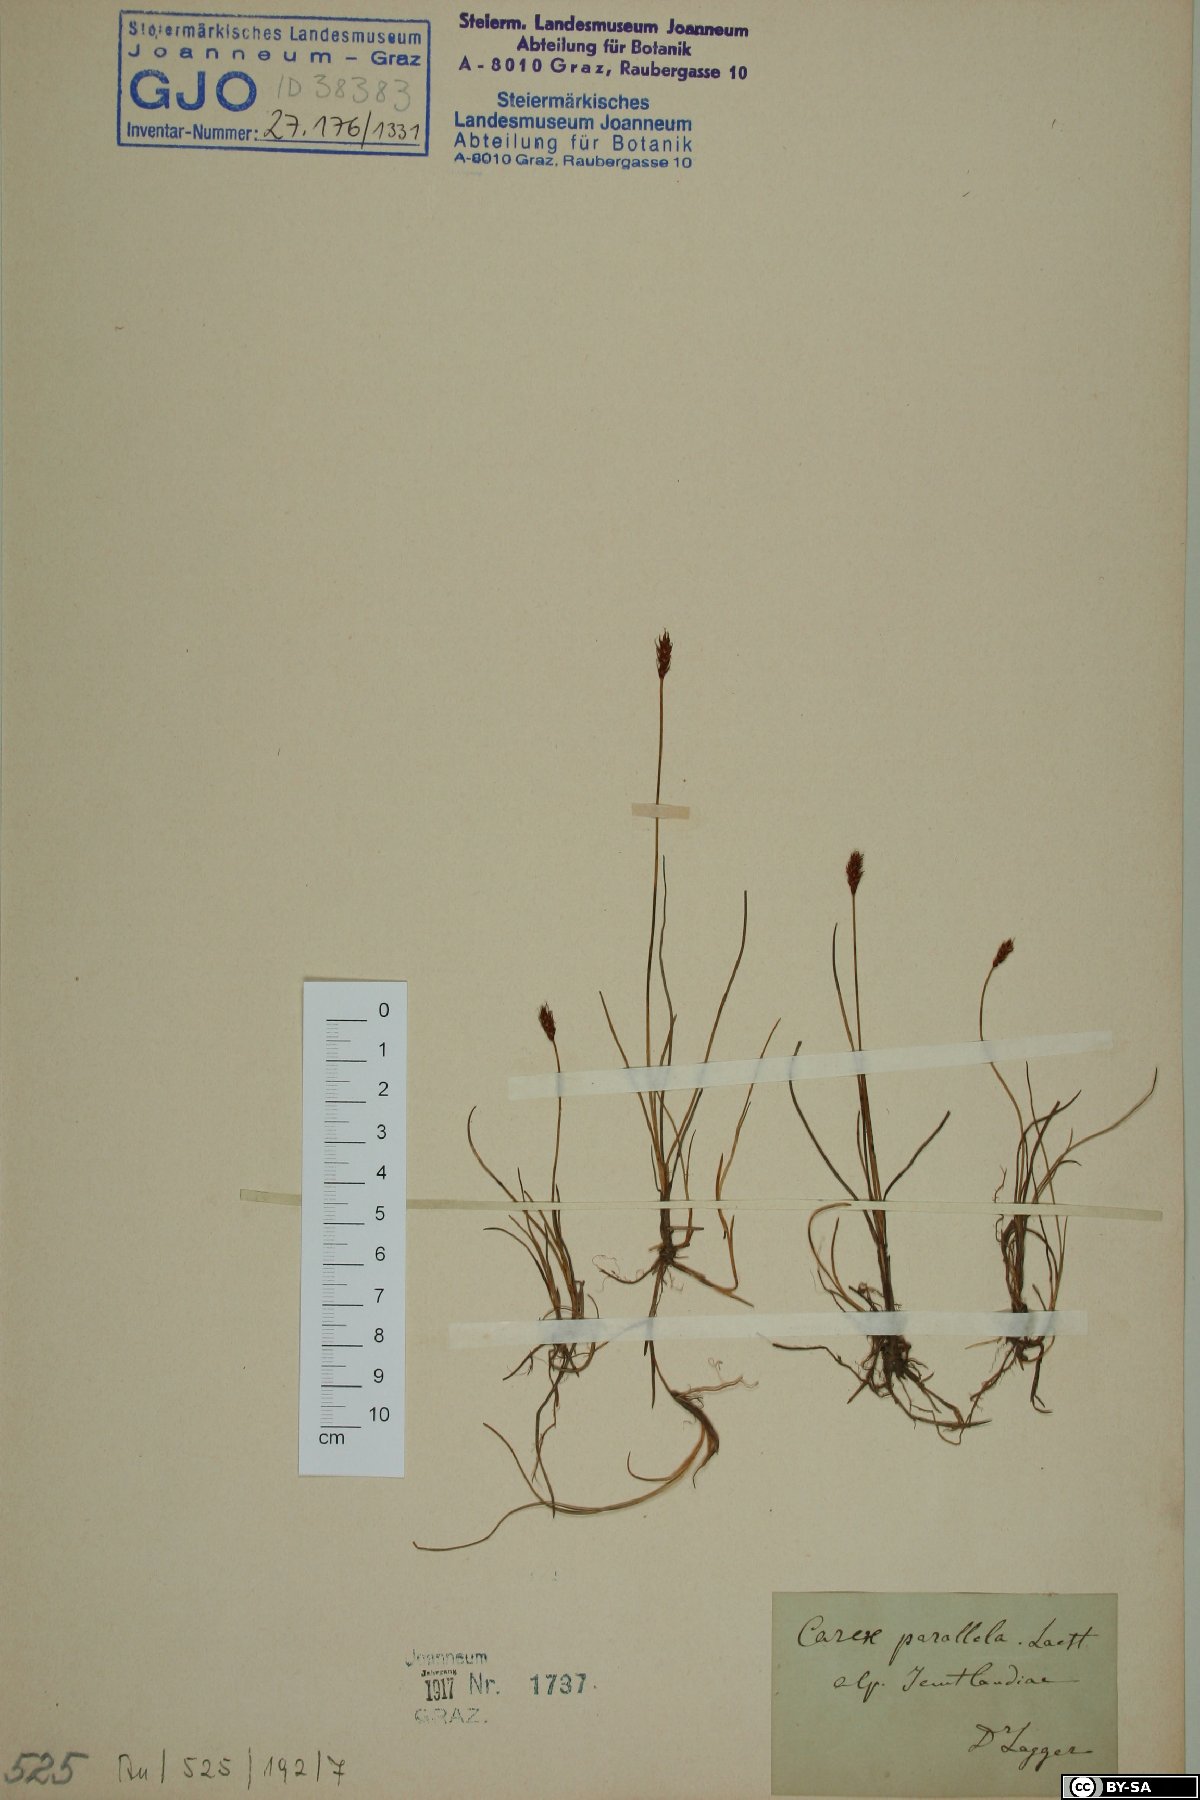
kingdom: Plantae
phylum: Tracheophyta
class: Liliopsida
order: Poales
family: Cyperaceae
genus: Carex
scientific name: Carex parallela
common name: Parallel sedge
